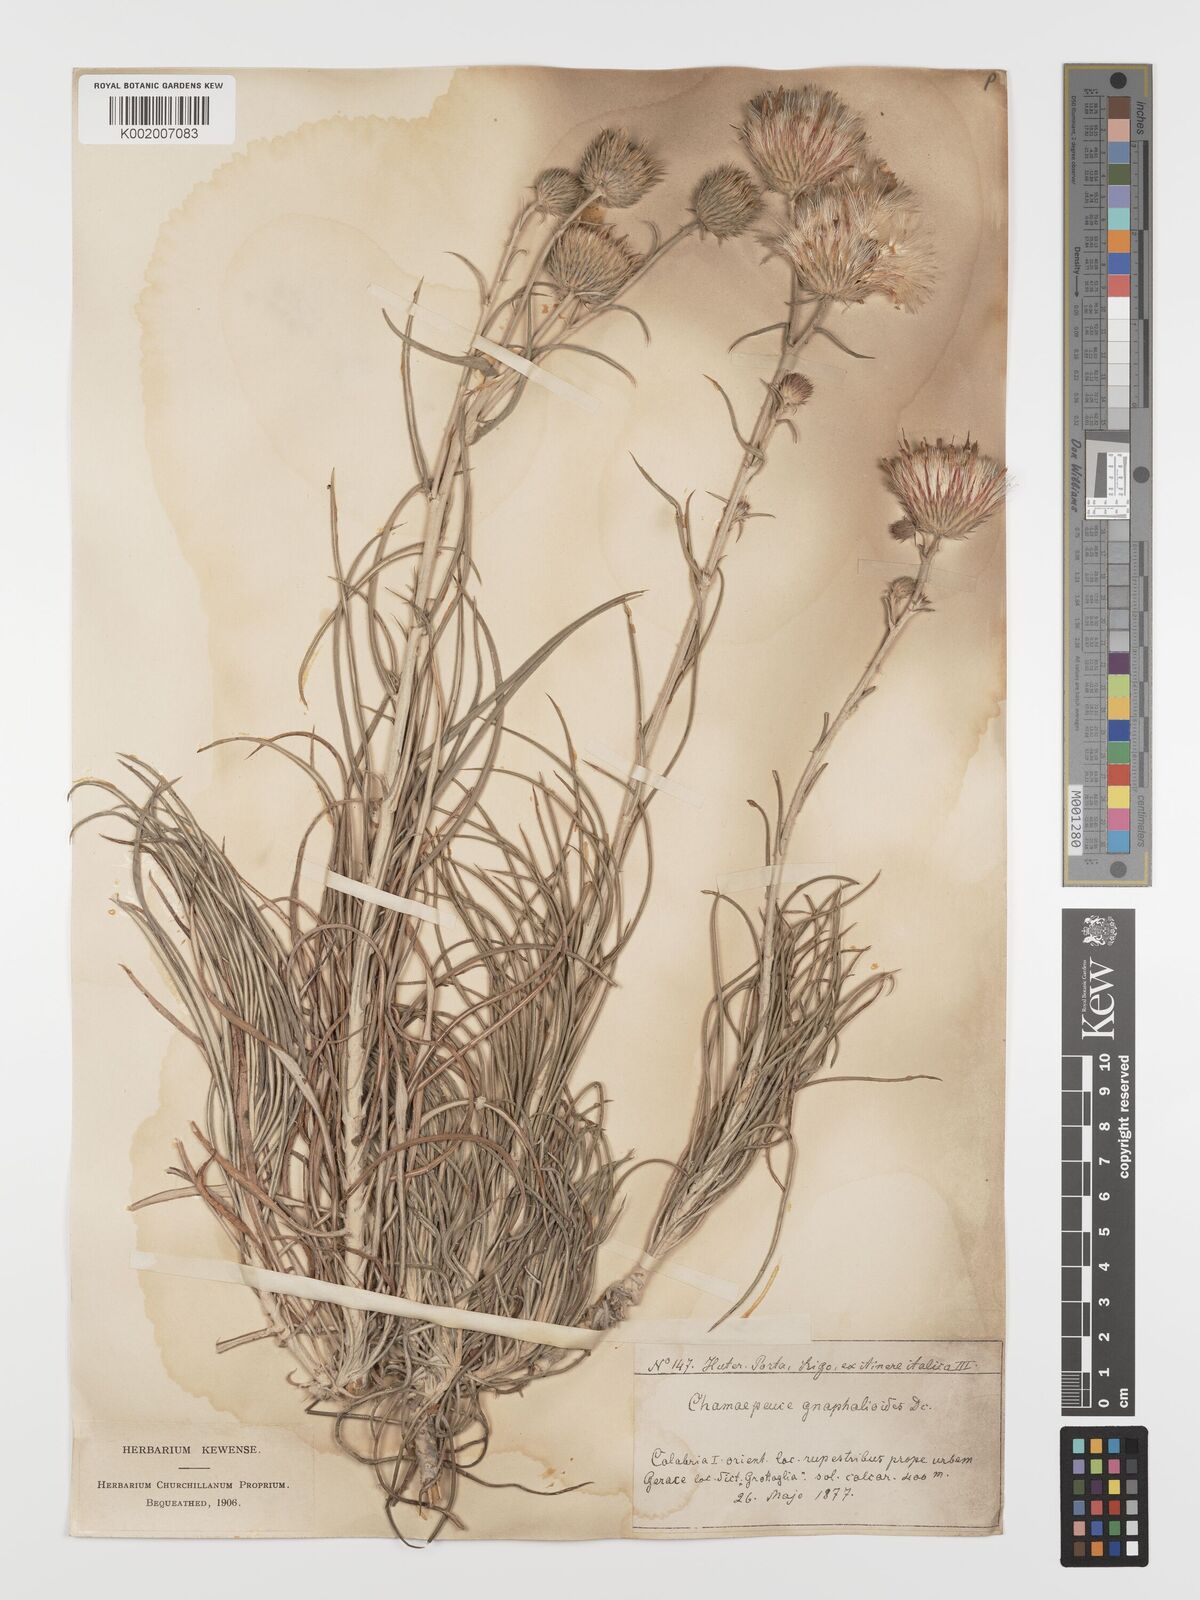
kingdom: Plantae
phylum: Tracheophyta
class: Magnoliopsida
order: Asterales
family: Asteraceae
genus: Ptilostemon
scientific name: Ptilostemon gnaphaloides
